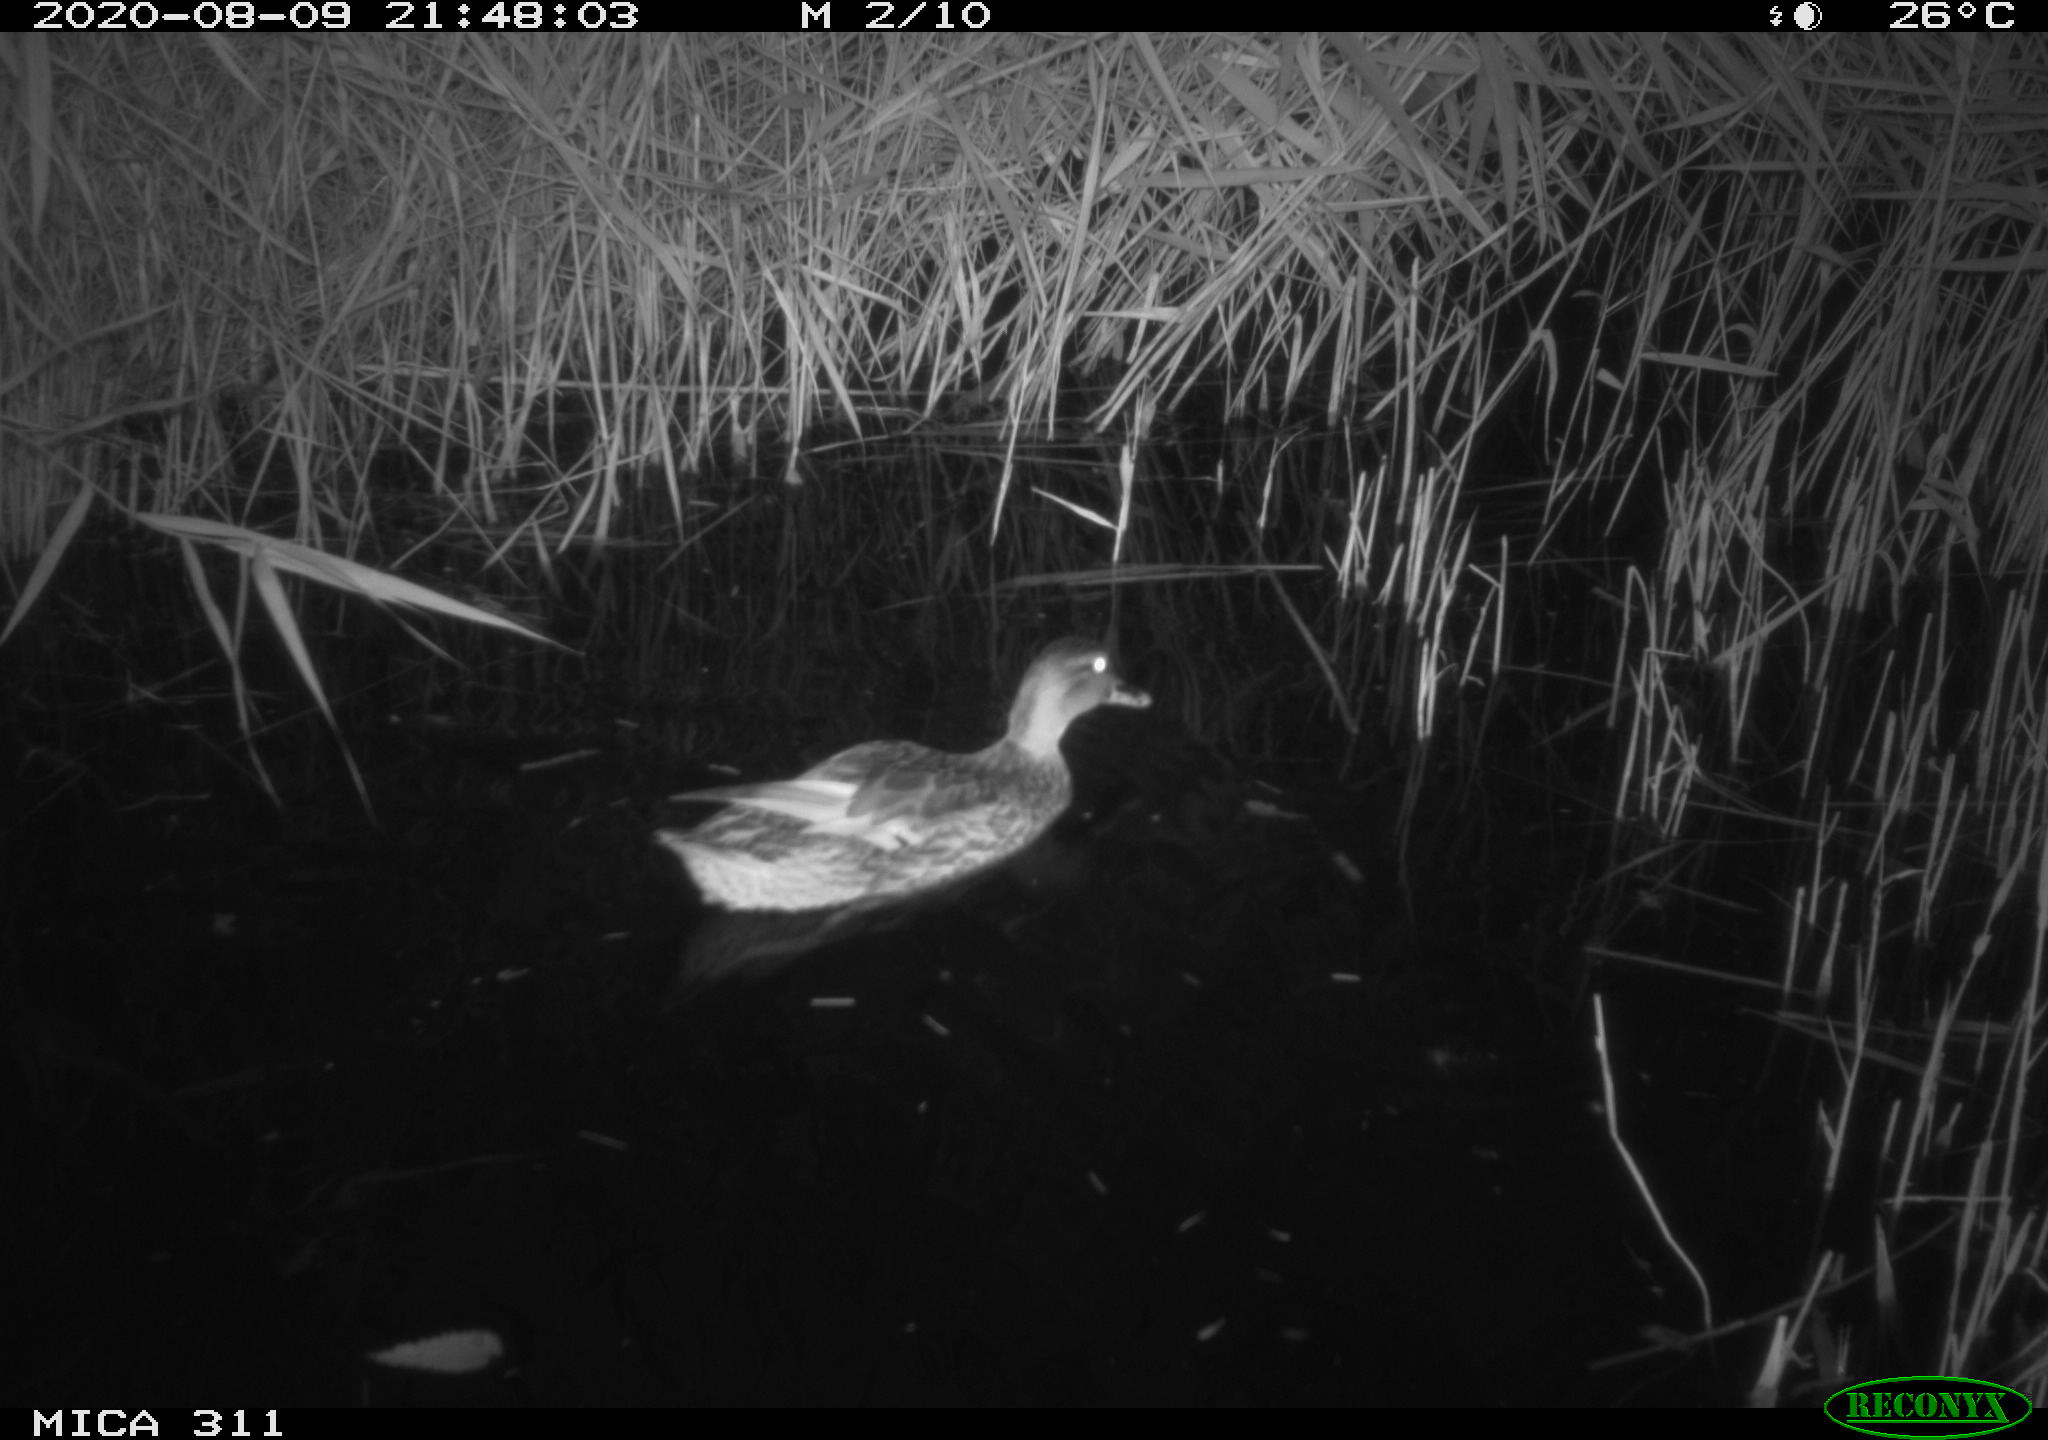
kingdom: Animalia
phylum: Chordata
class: Aves
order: Anseriformes
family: Anatidae
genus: Anas
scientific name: Anas platyrhynchos
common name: Mallard
